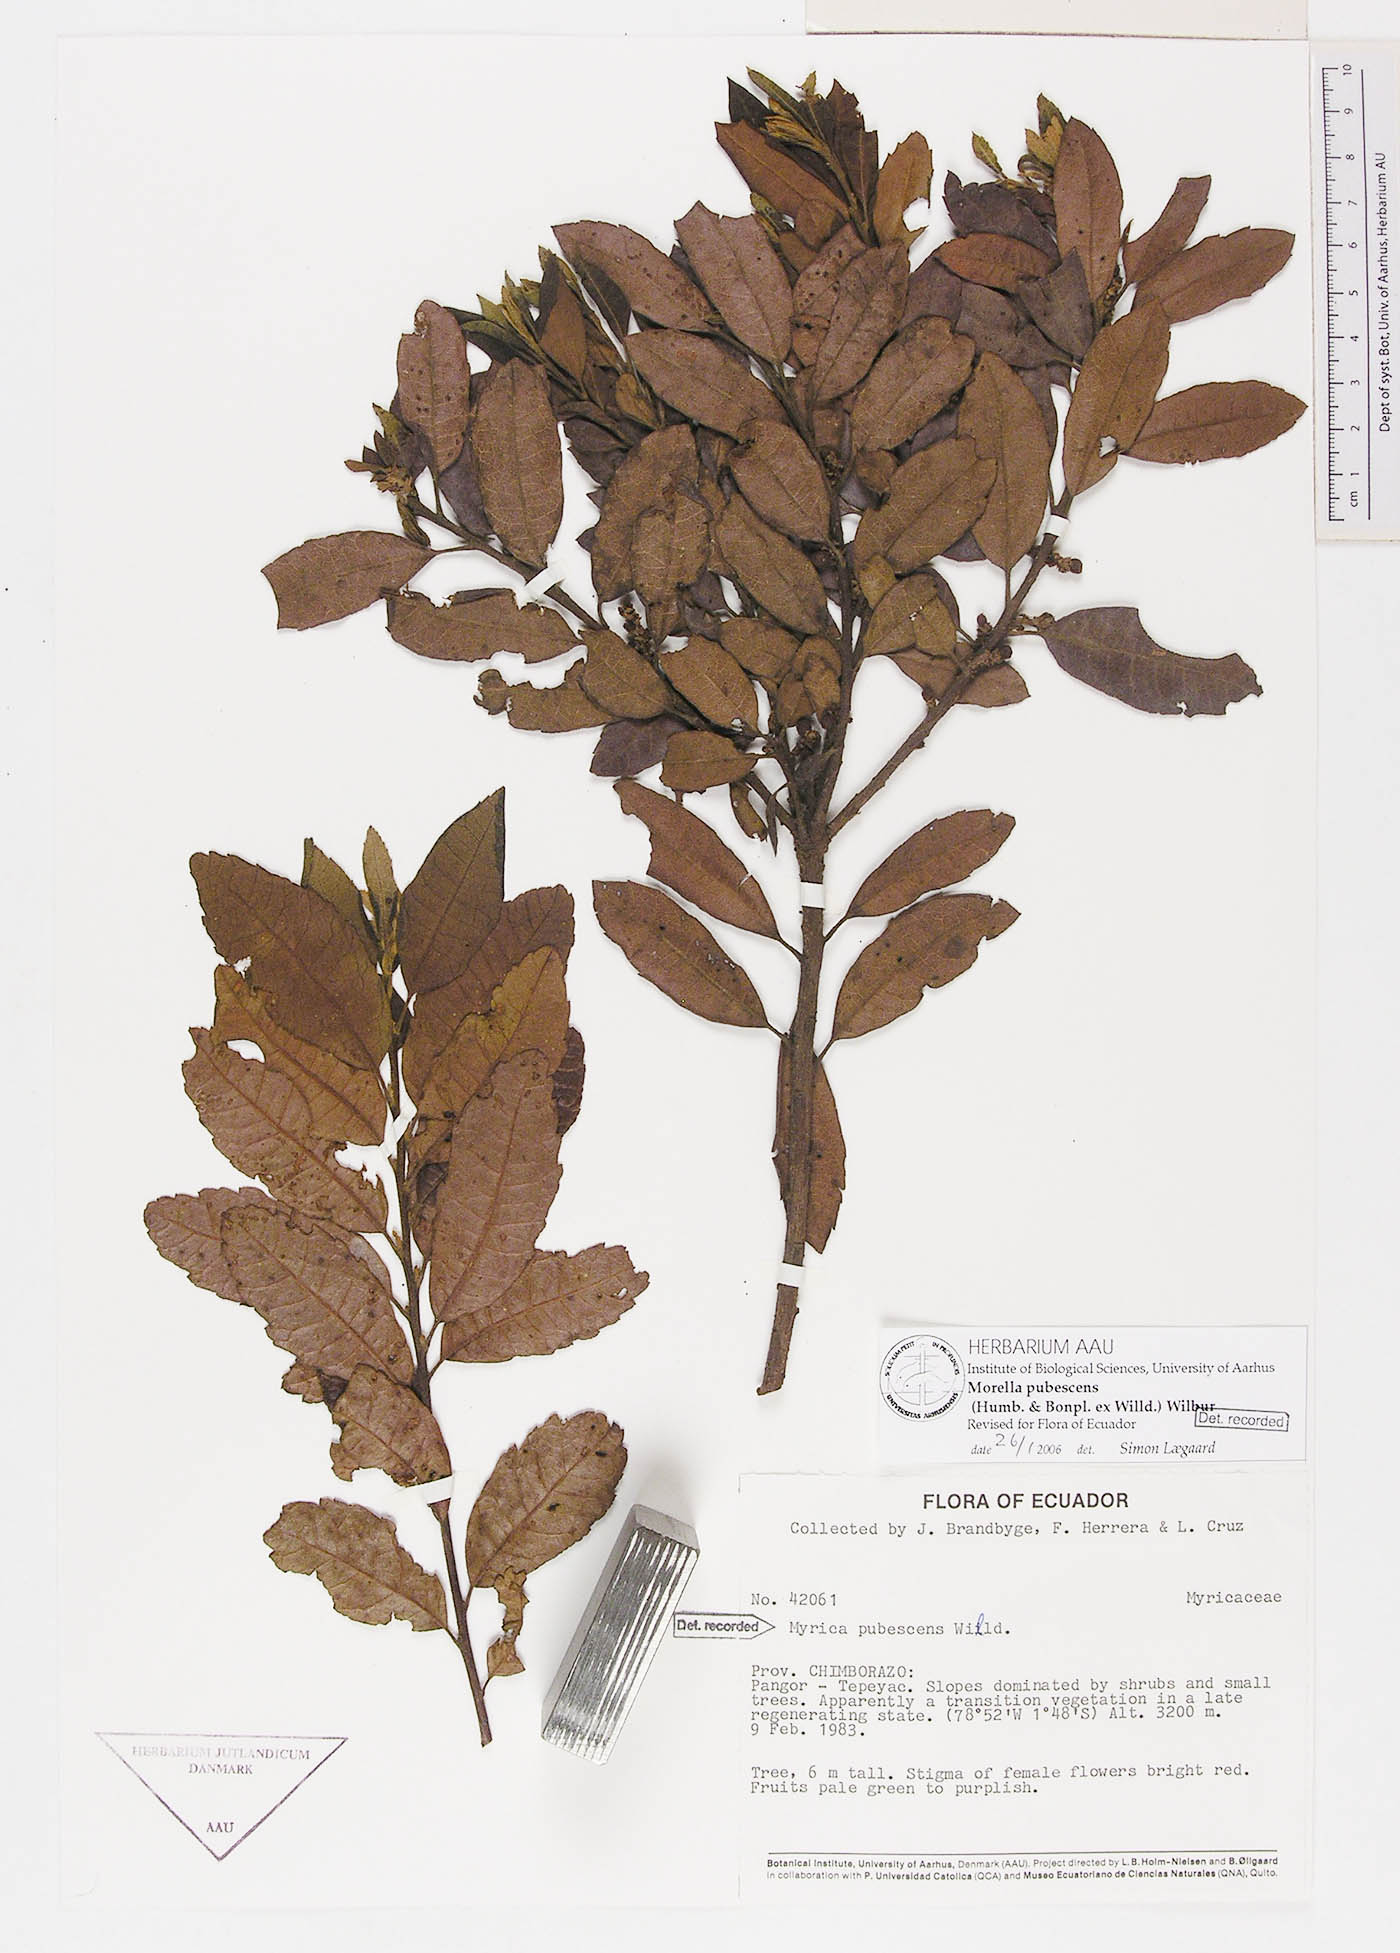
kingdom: Plantae
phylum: Tracheophyta
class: Magnoliopsida
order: Fagales
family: Myricaceae
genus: Morella
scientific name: Morella pubescens
